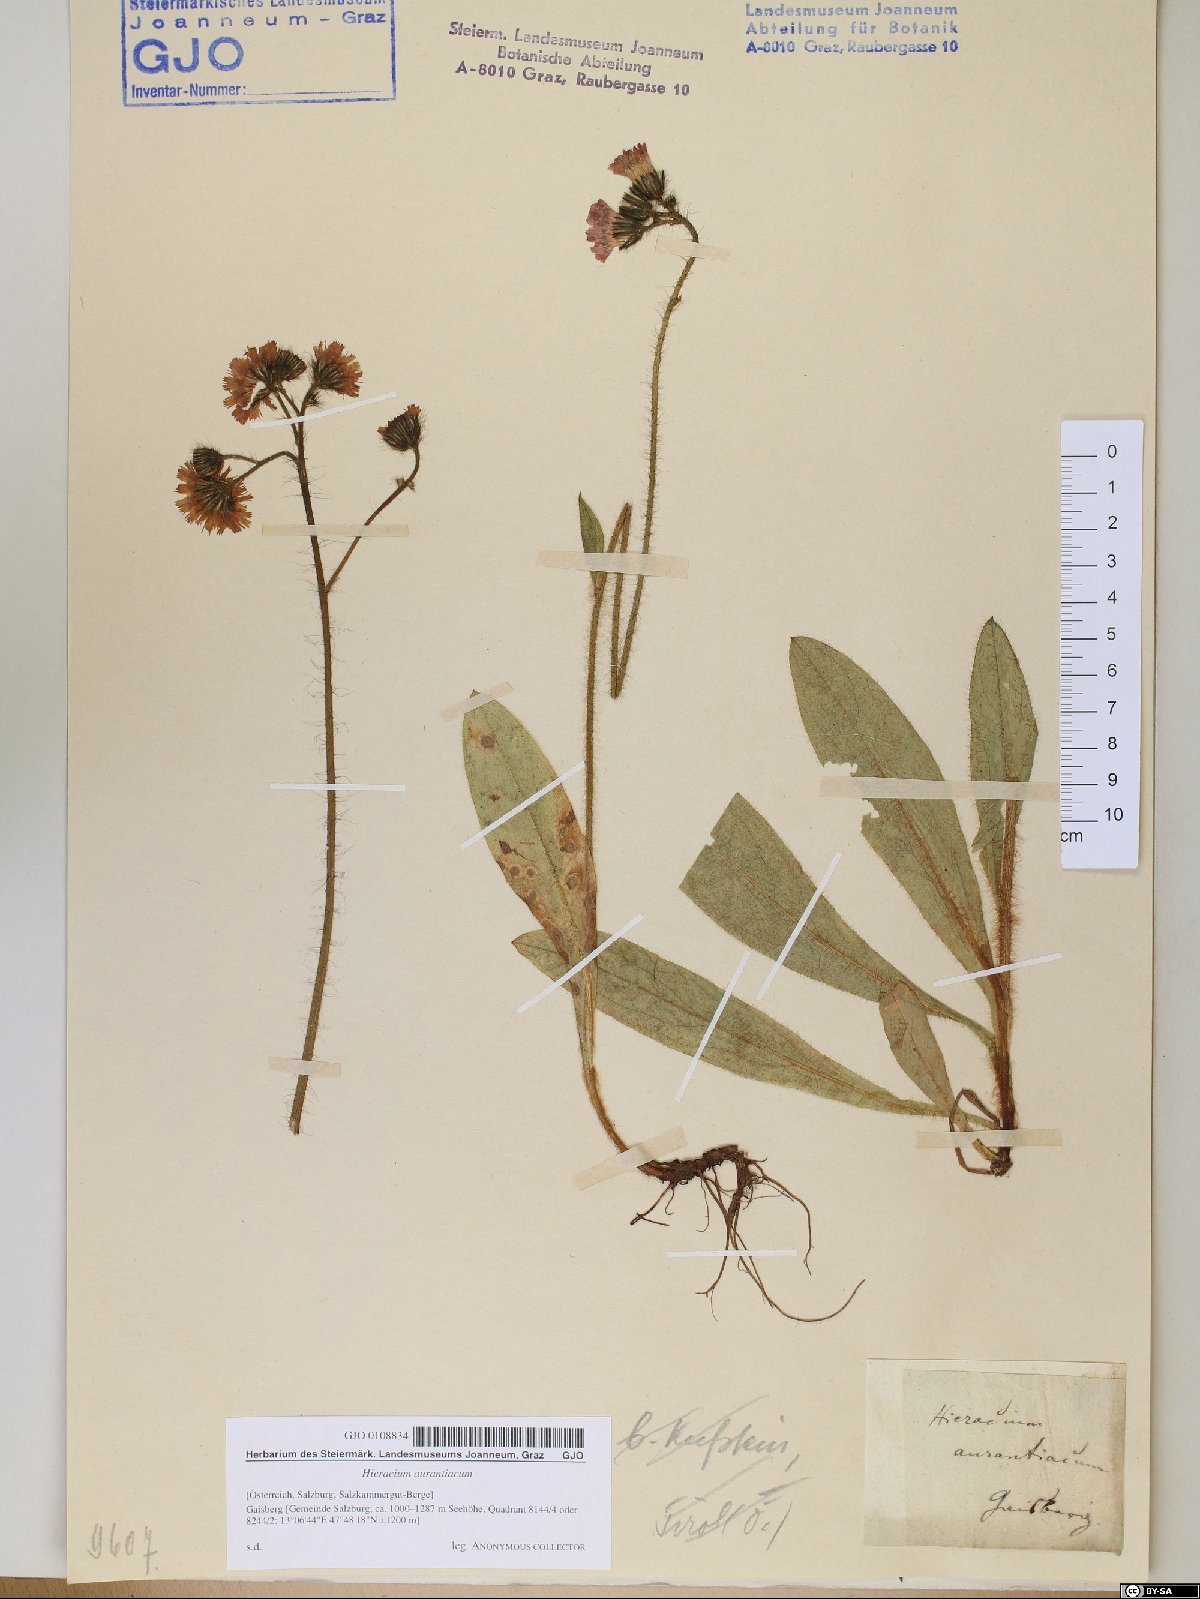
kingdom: Plantae
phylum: Tracheophyta
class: Magnoliopsida
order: Asterales
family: Asteraceae
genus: Pilosella
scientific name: Pilosella aurantiaca
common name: Fox-and-cubs
